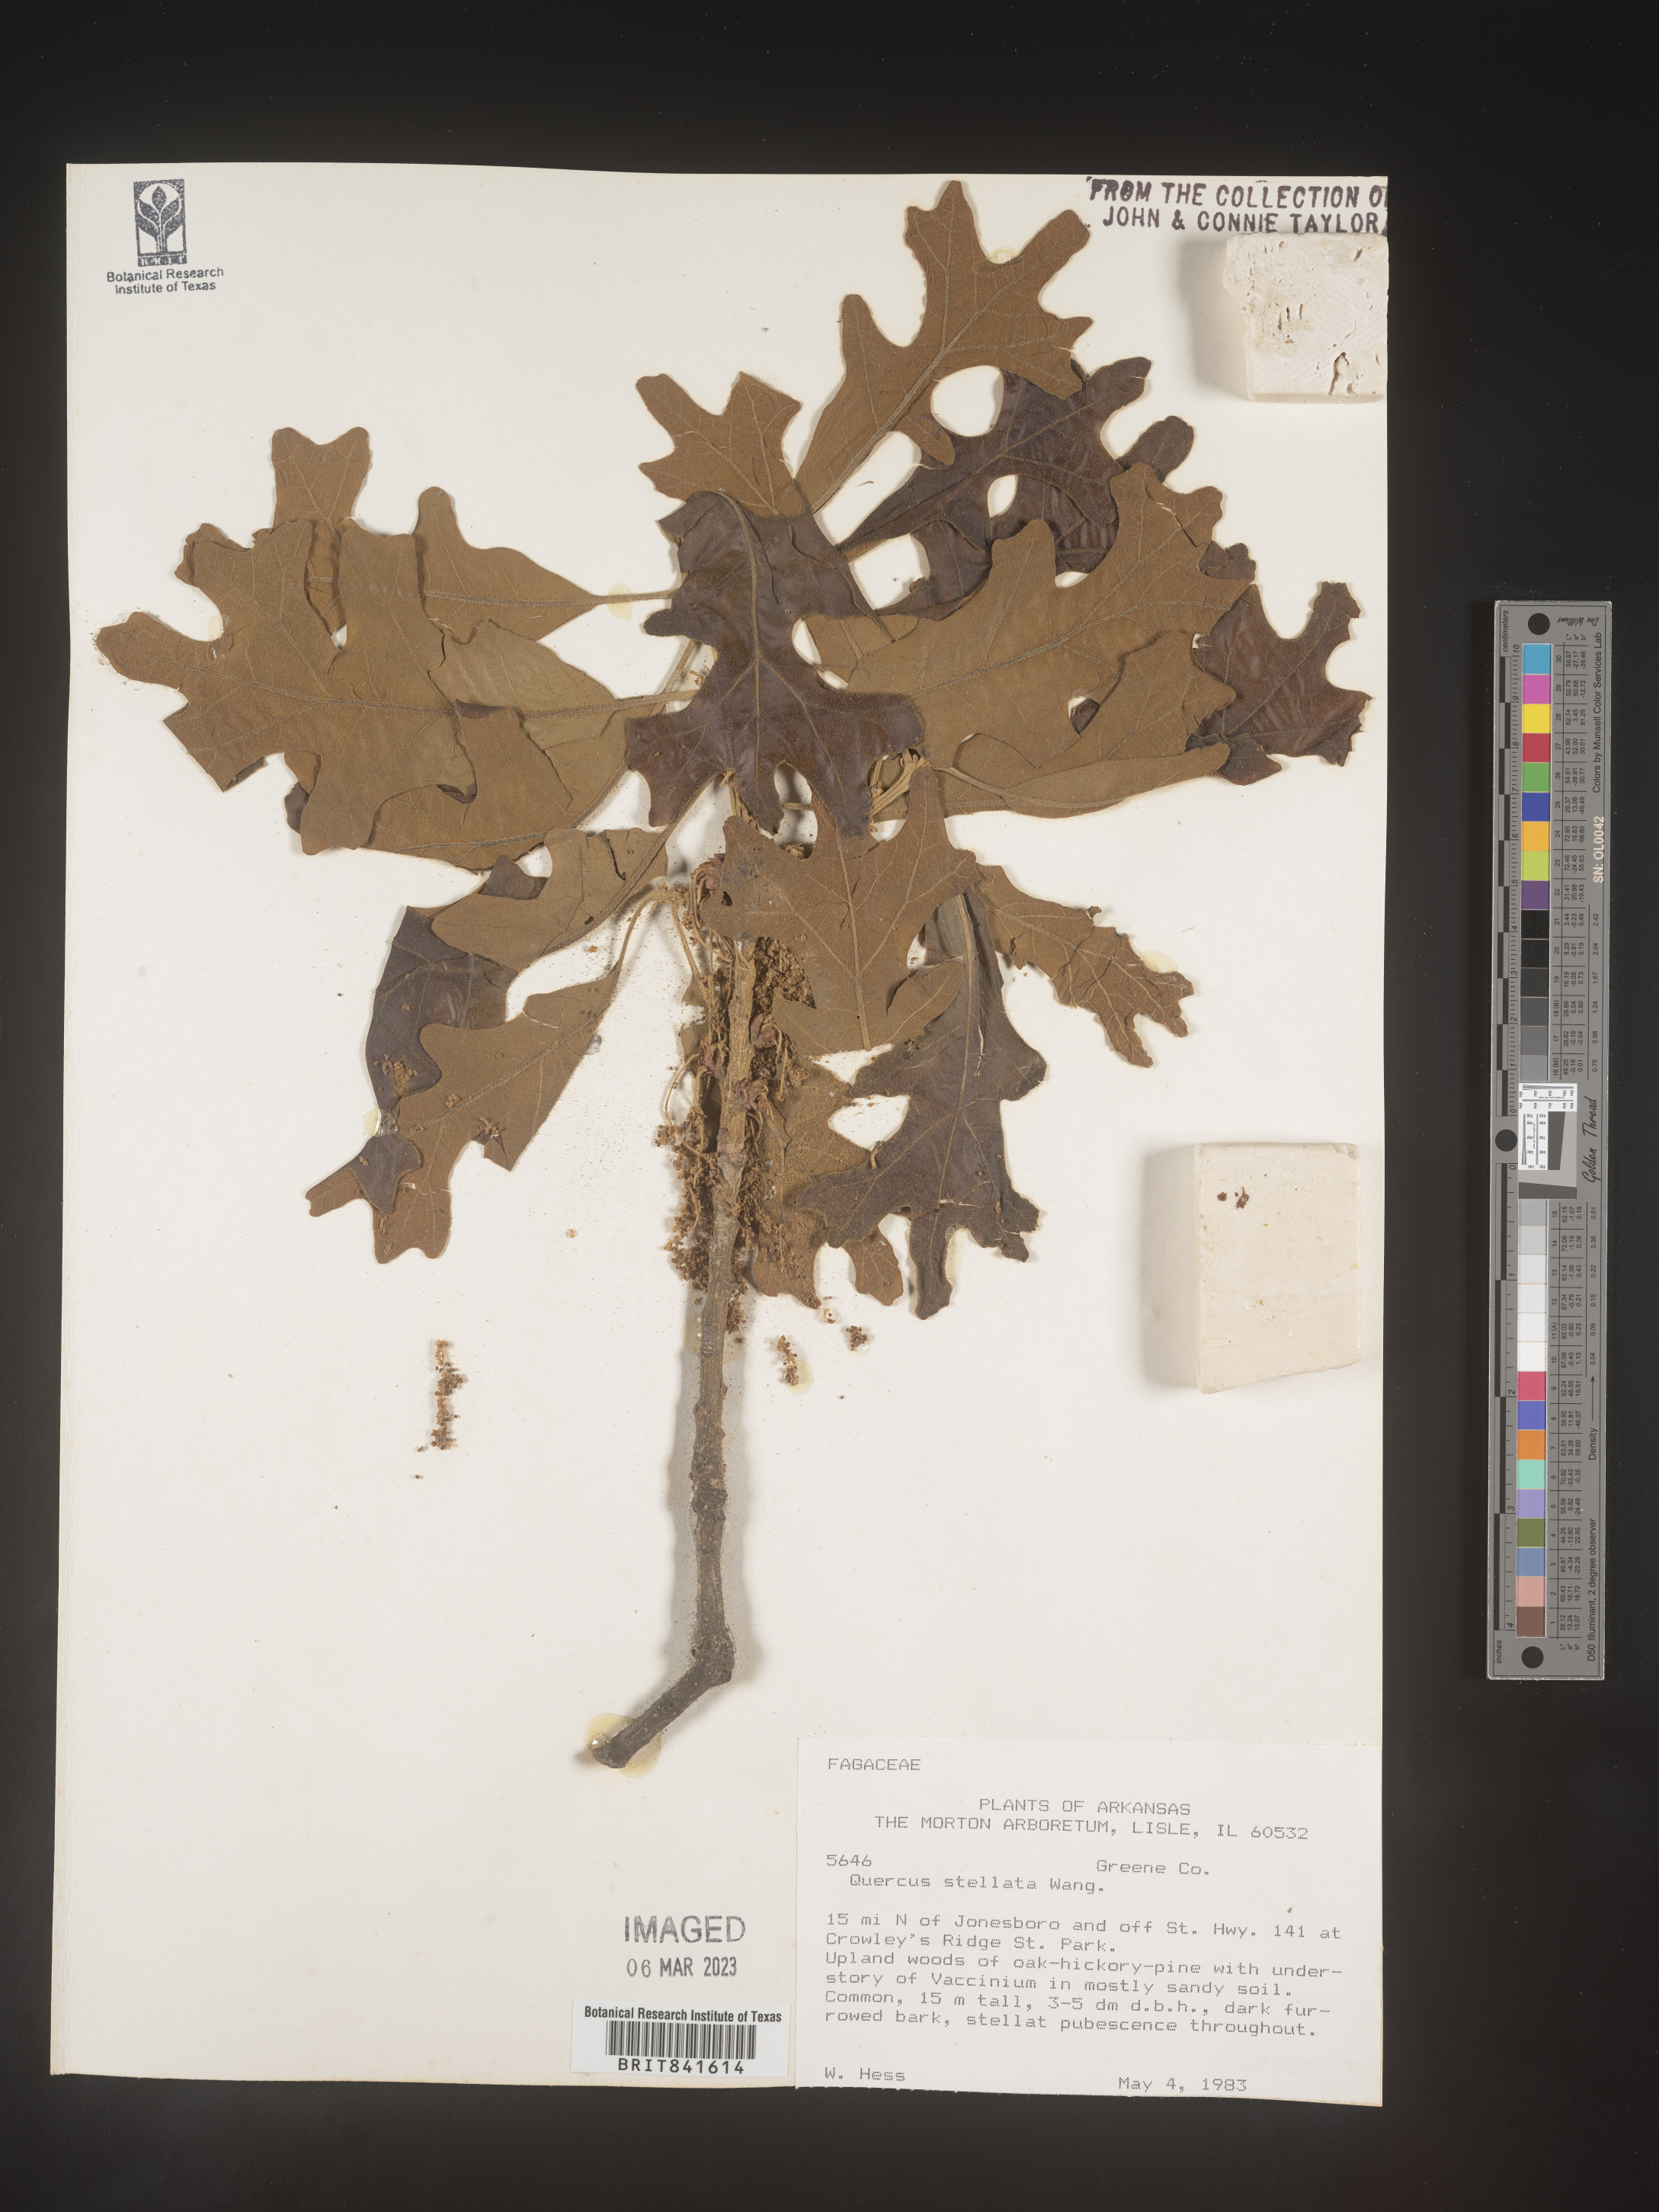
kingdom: Plantae
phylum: Tracheophyta
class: Magnoliopsida
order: Fagales
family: Fagaceae
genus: Quercus
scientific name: Quercus stellata
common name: Post oak
